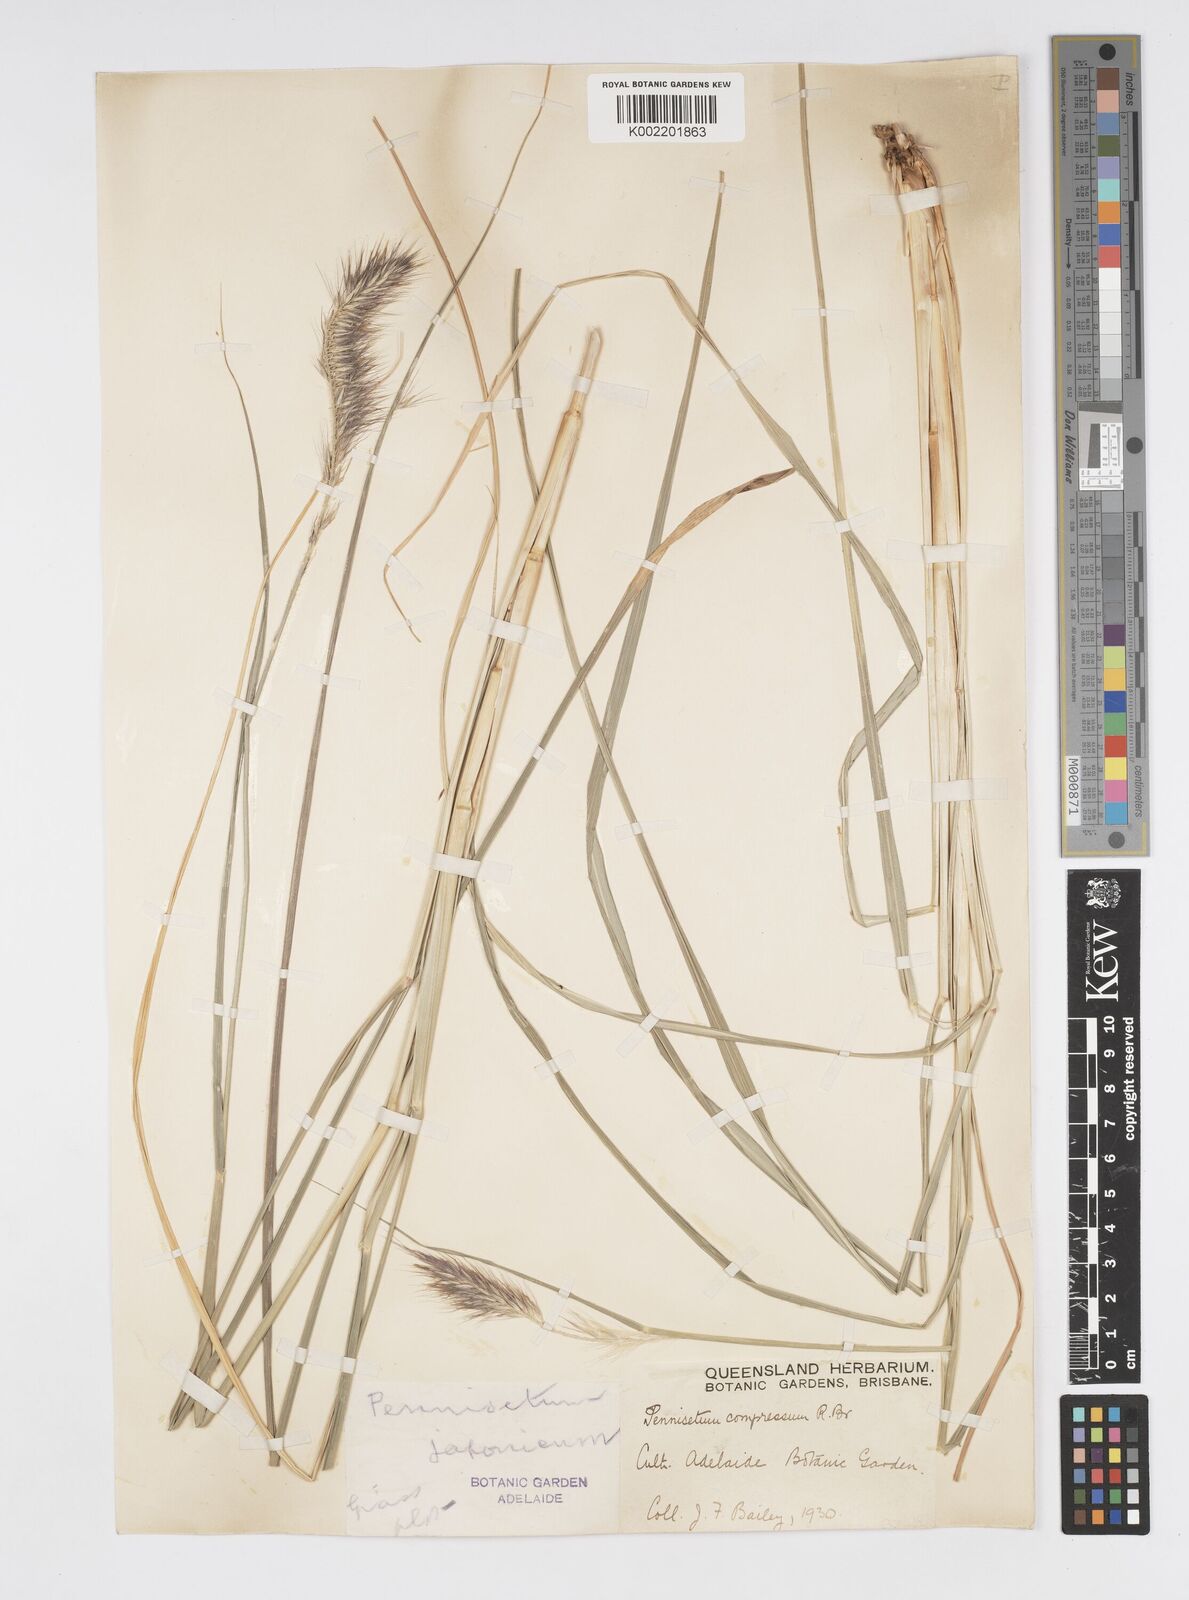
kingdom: Plantae
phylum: Tracheophyta
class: Liliopsida
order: Poales
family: Poaceae
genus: Cenchrus
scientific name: Cenchrus alopecuroides
